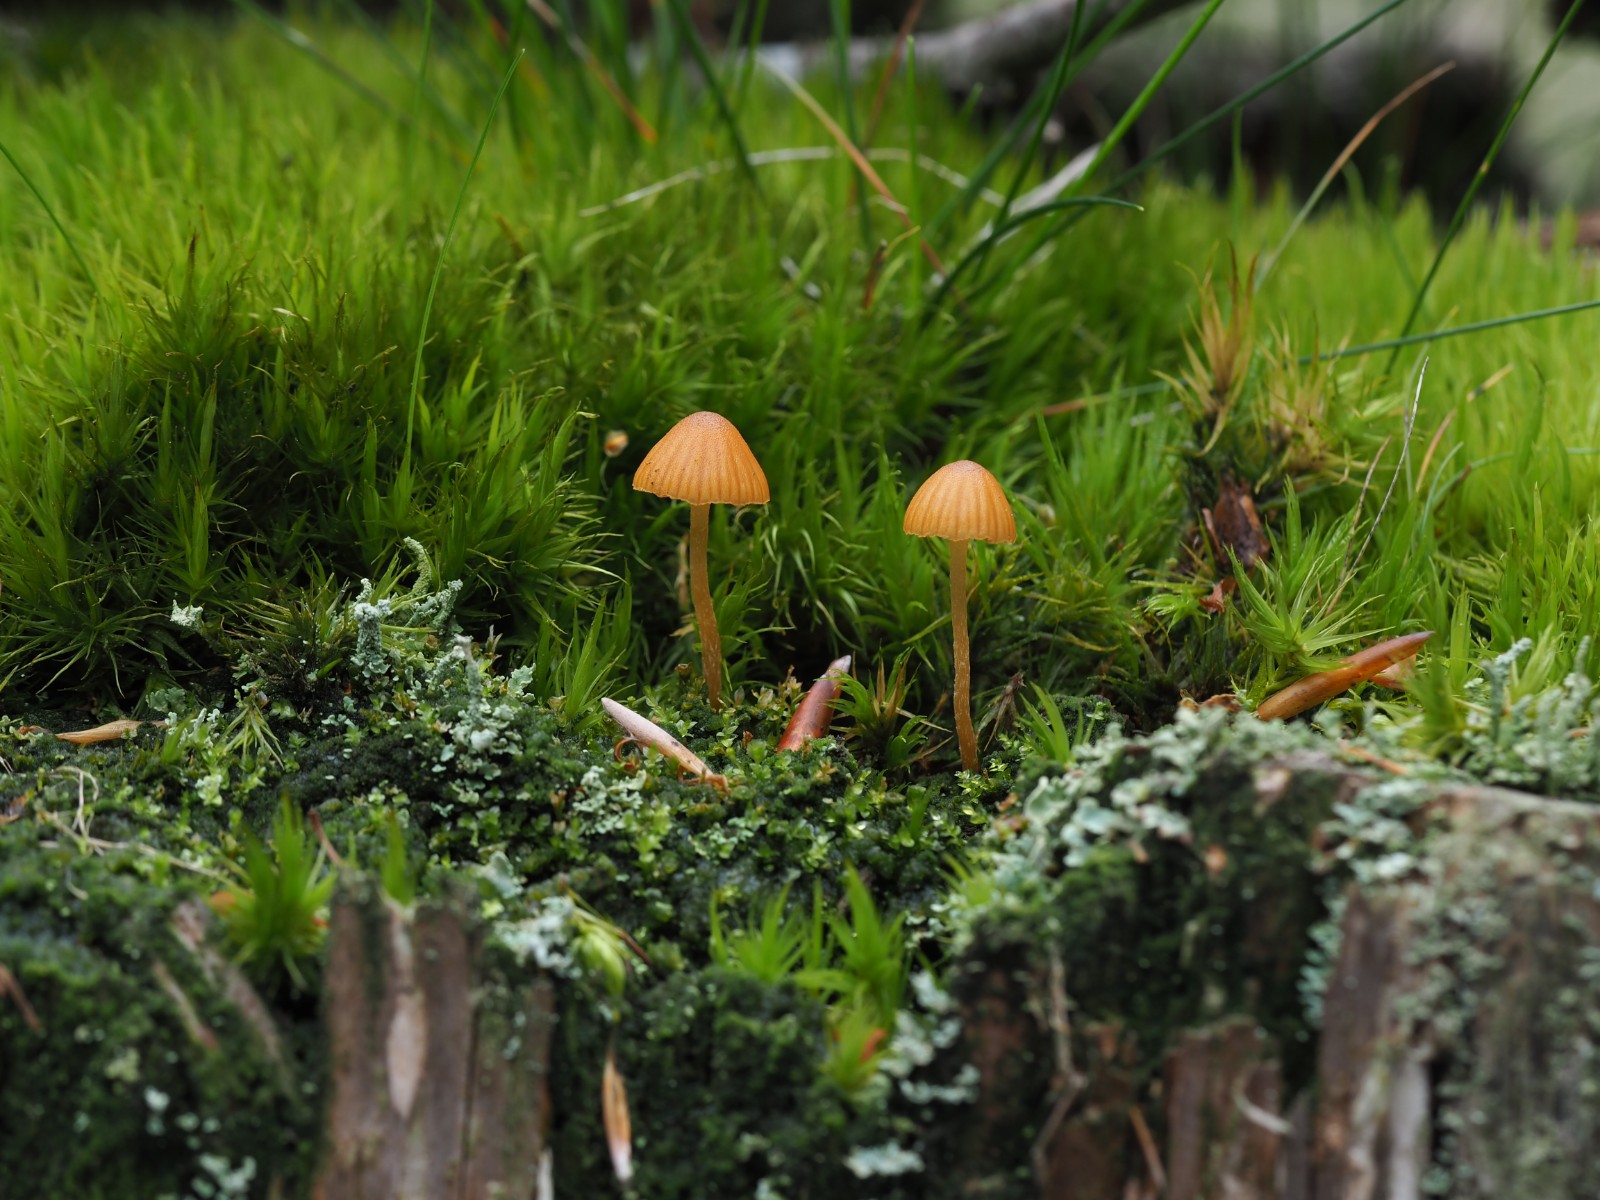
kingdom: Fungi
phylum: Basidiomycota
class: Agaricomycetes
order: Agaricales
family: Hymenogastraceae
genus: Galerina
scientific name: Galerina calyptrata
